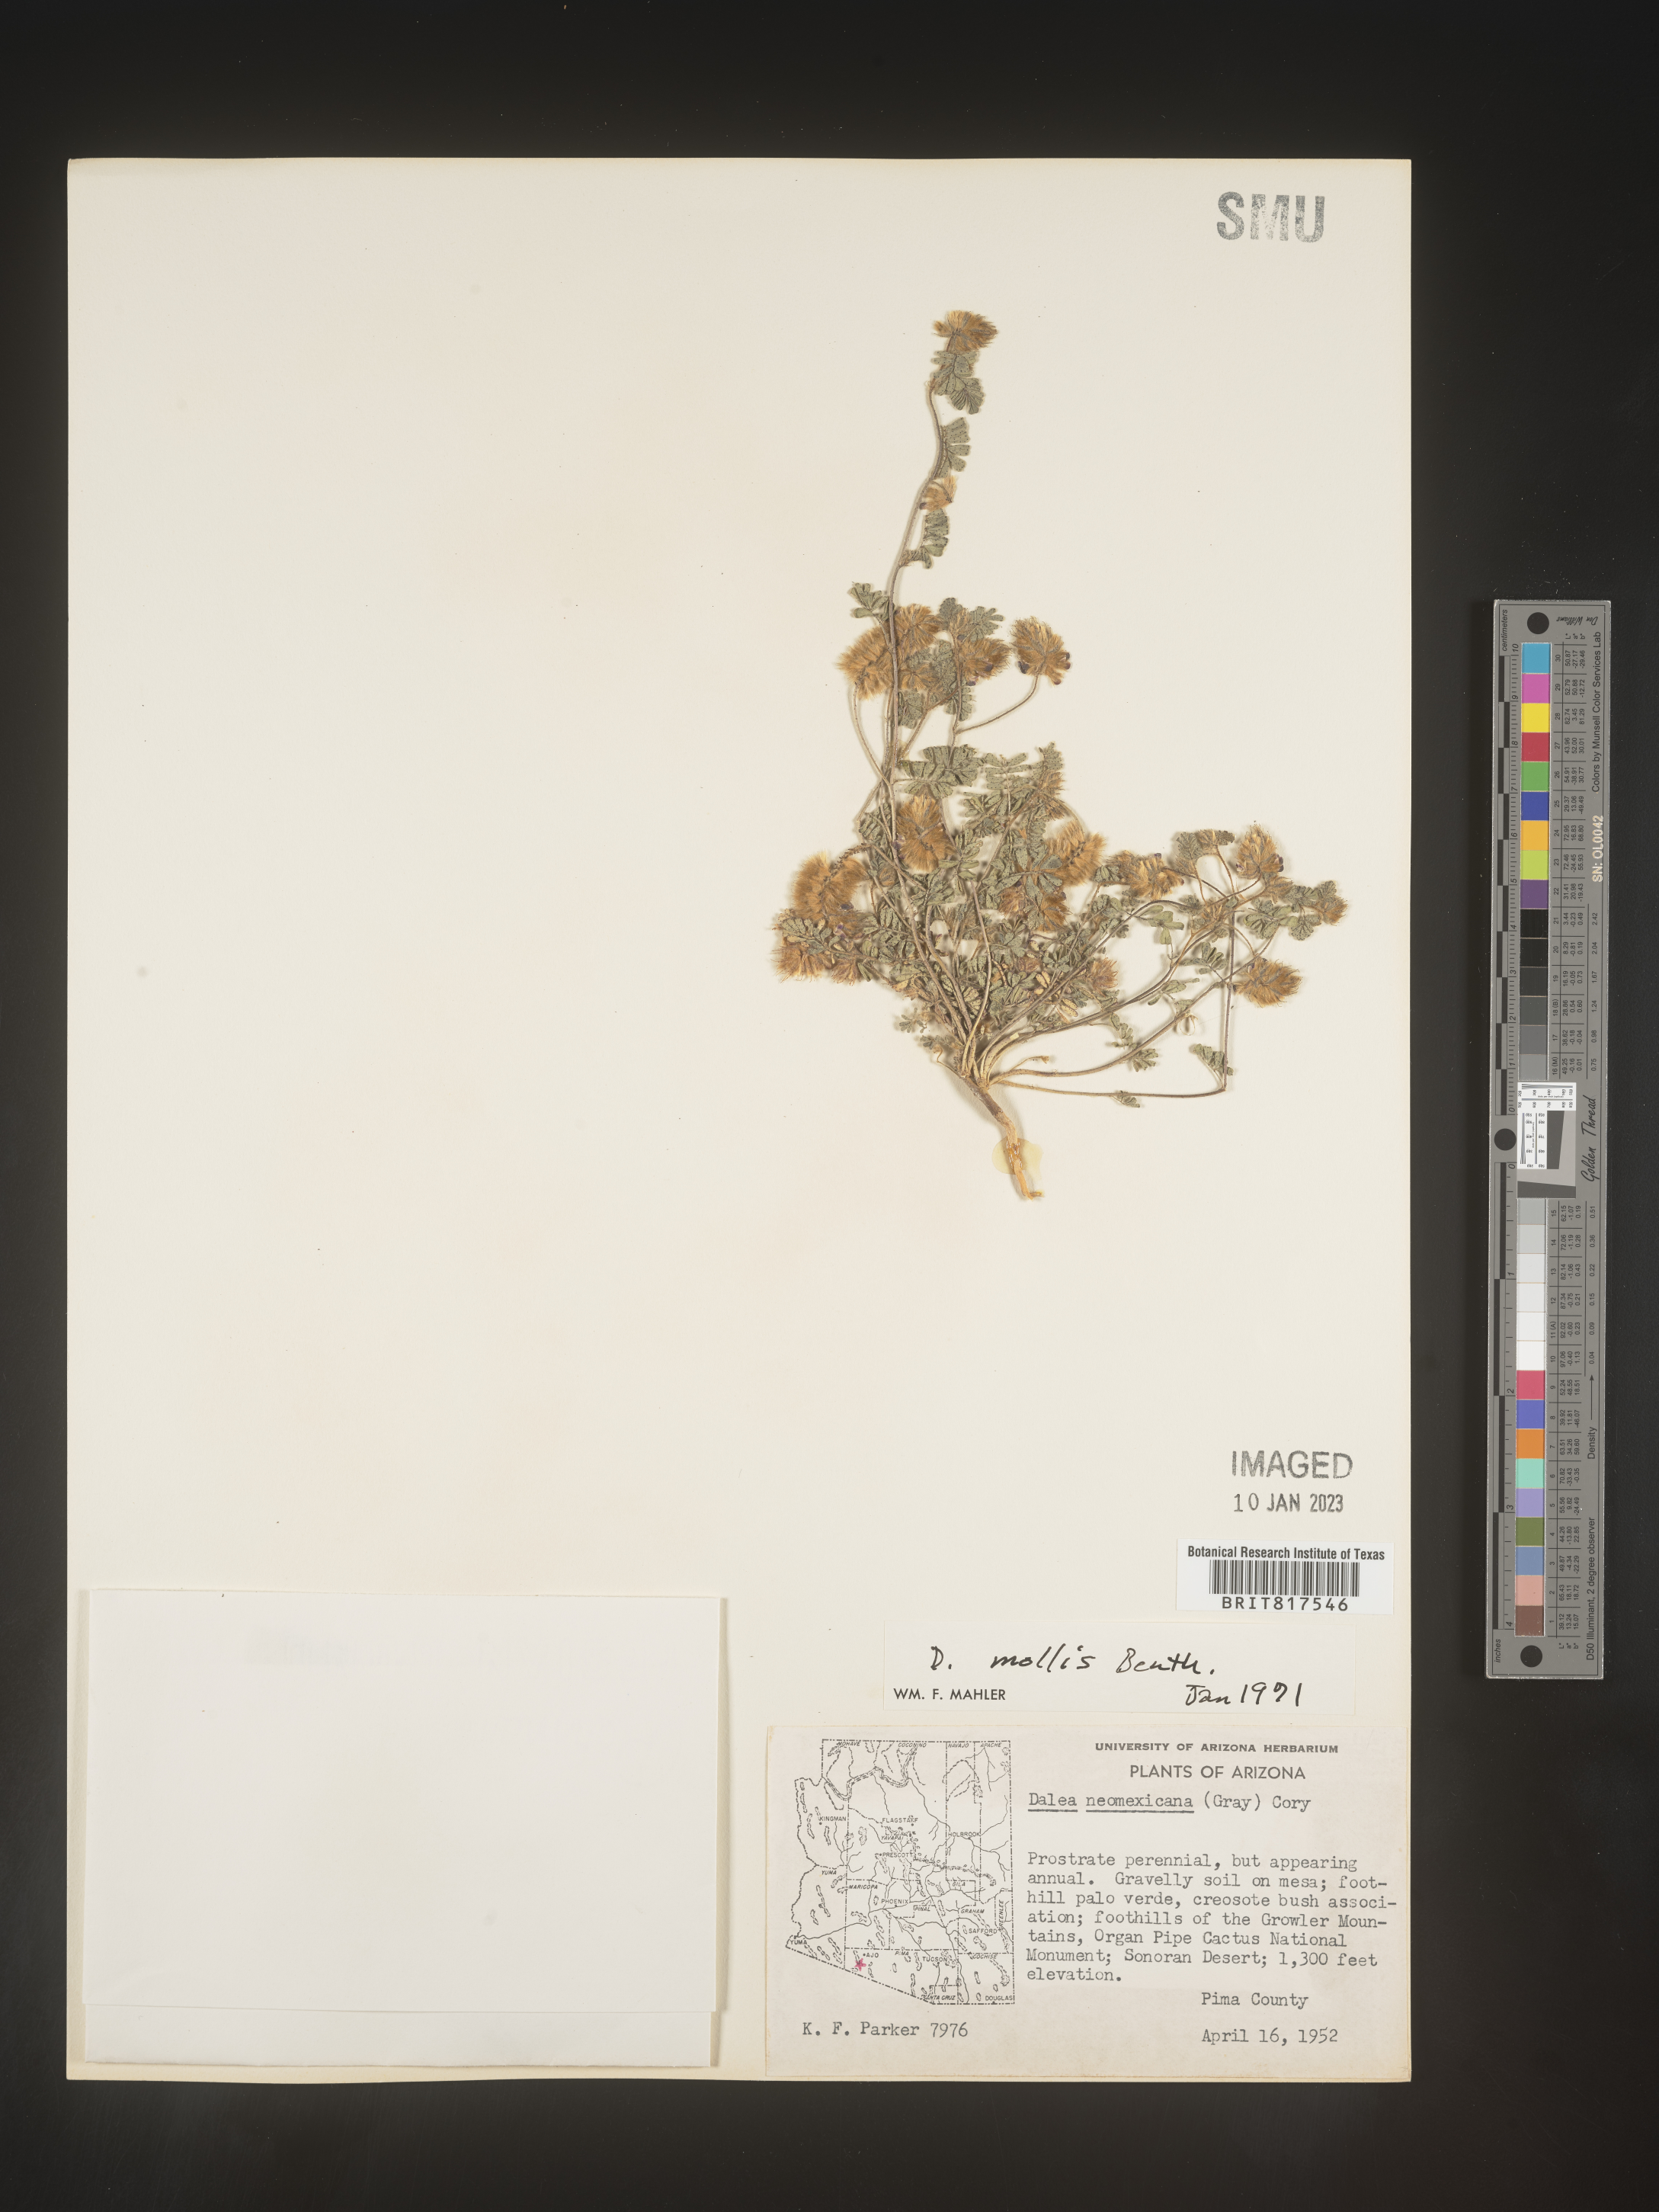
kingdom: Plantae
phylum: Tracheophyta
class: Magnoliopsida
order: Fabales
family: Fabaceae
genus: Dalea
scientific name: Dalea leporina
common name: Foxtail dalea
